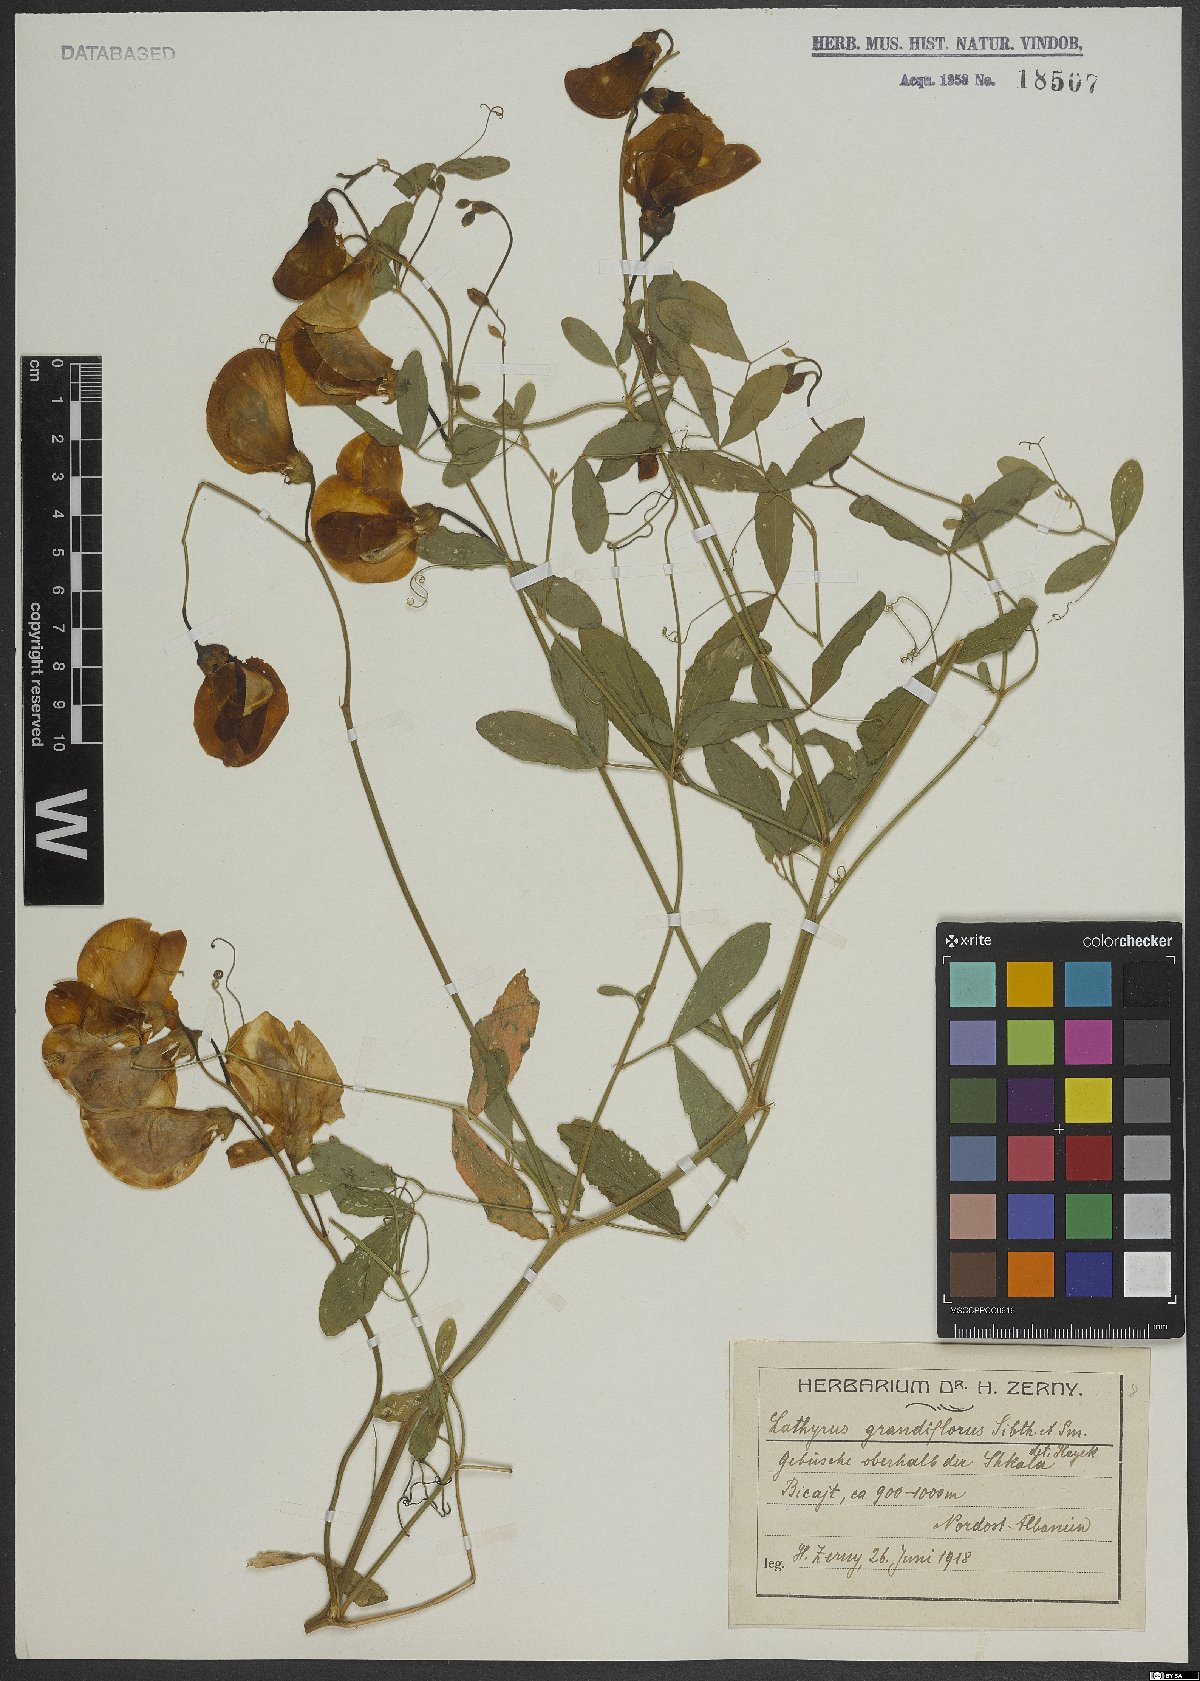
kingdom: Plantae
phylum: Tracheophyta
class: Magnoliopsida
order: Fabales
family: Fabaceae
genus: Lathyrus
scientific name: Lathyrus grandiflorus
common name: Two-flowered everlasting-pea
